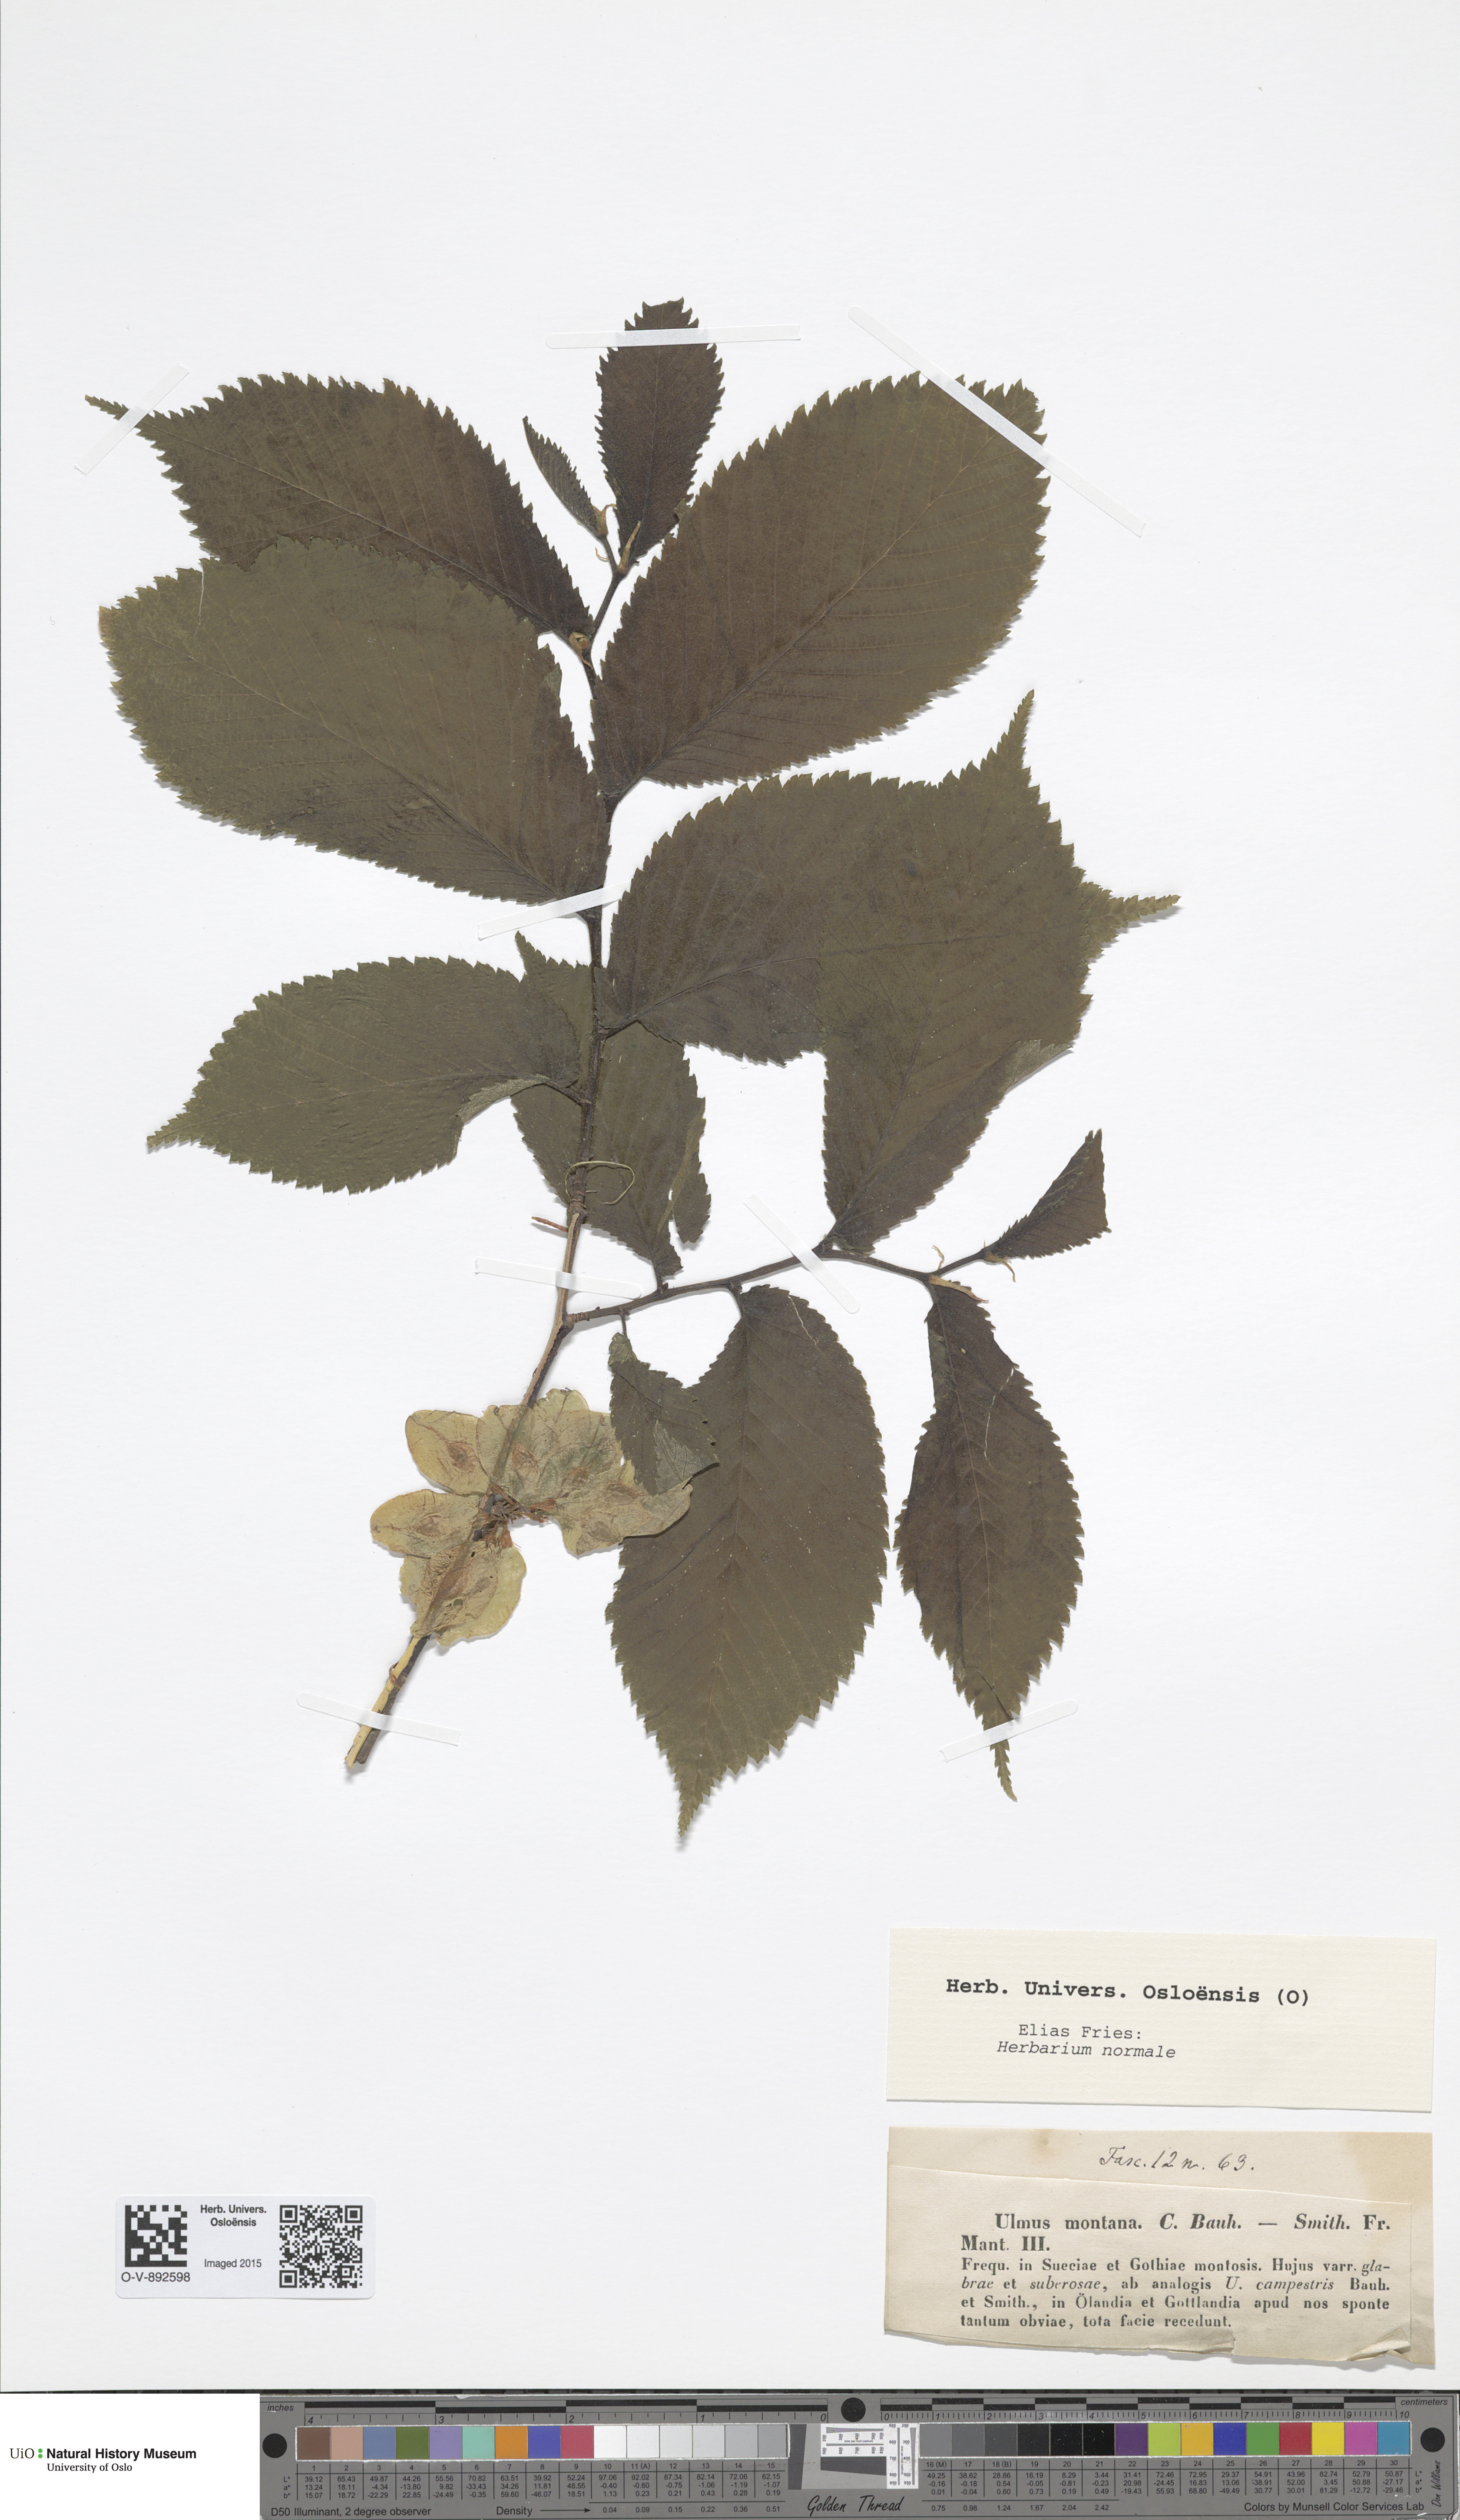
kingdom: Plantae
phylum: Tracheophyta
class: Magnoliopsida
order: Rosales
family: Ulmaceae
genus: Ulmus
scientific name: Ulmus glabra
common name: Wych elm
